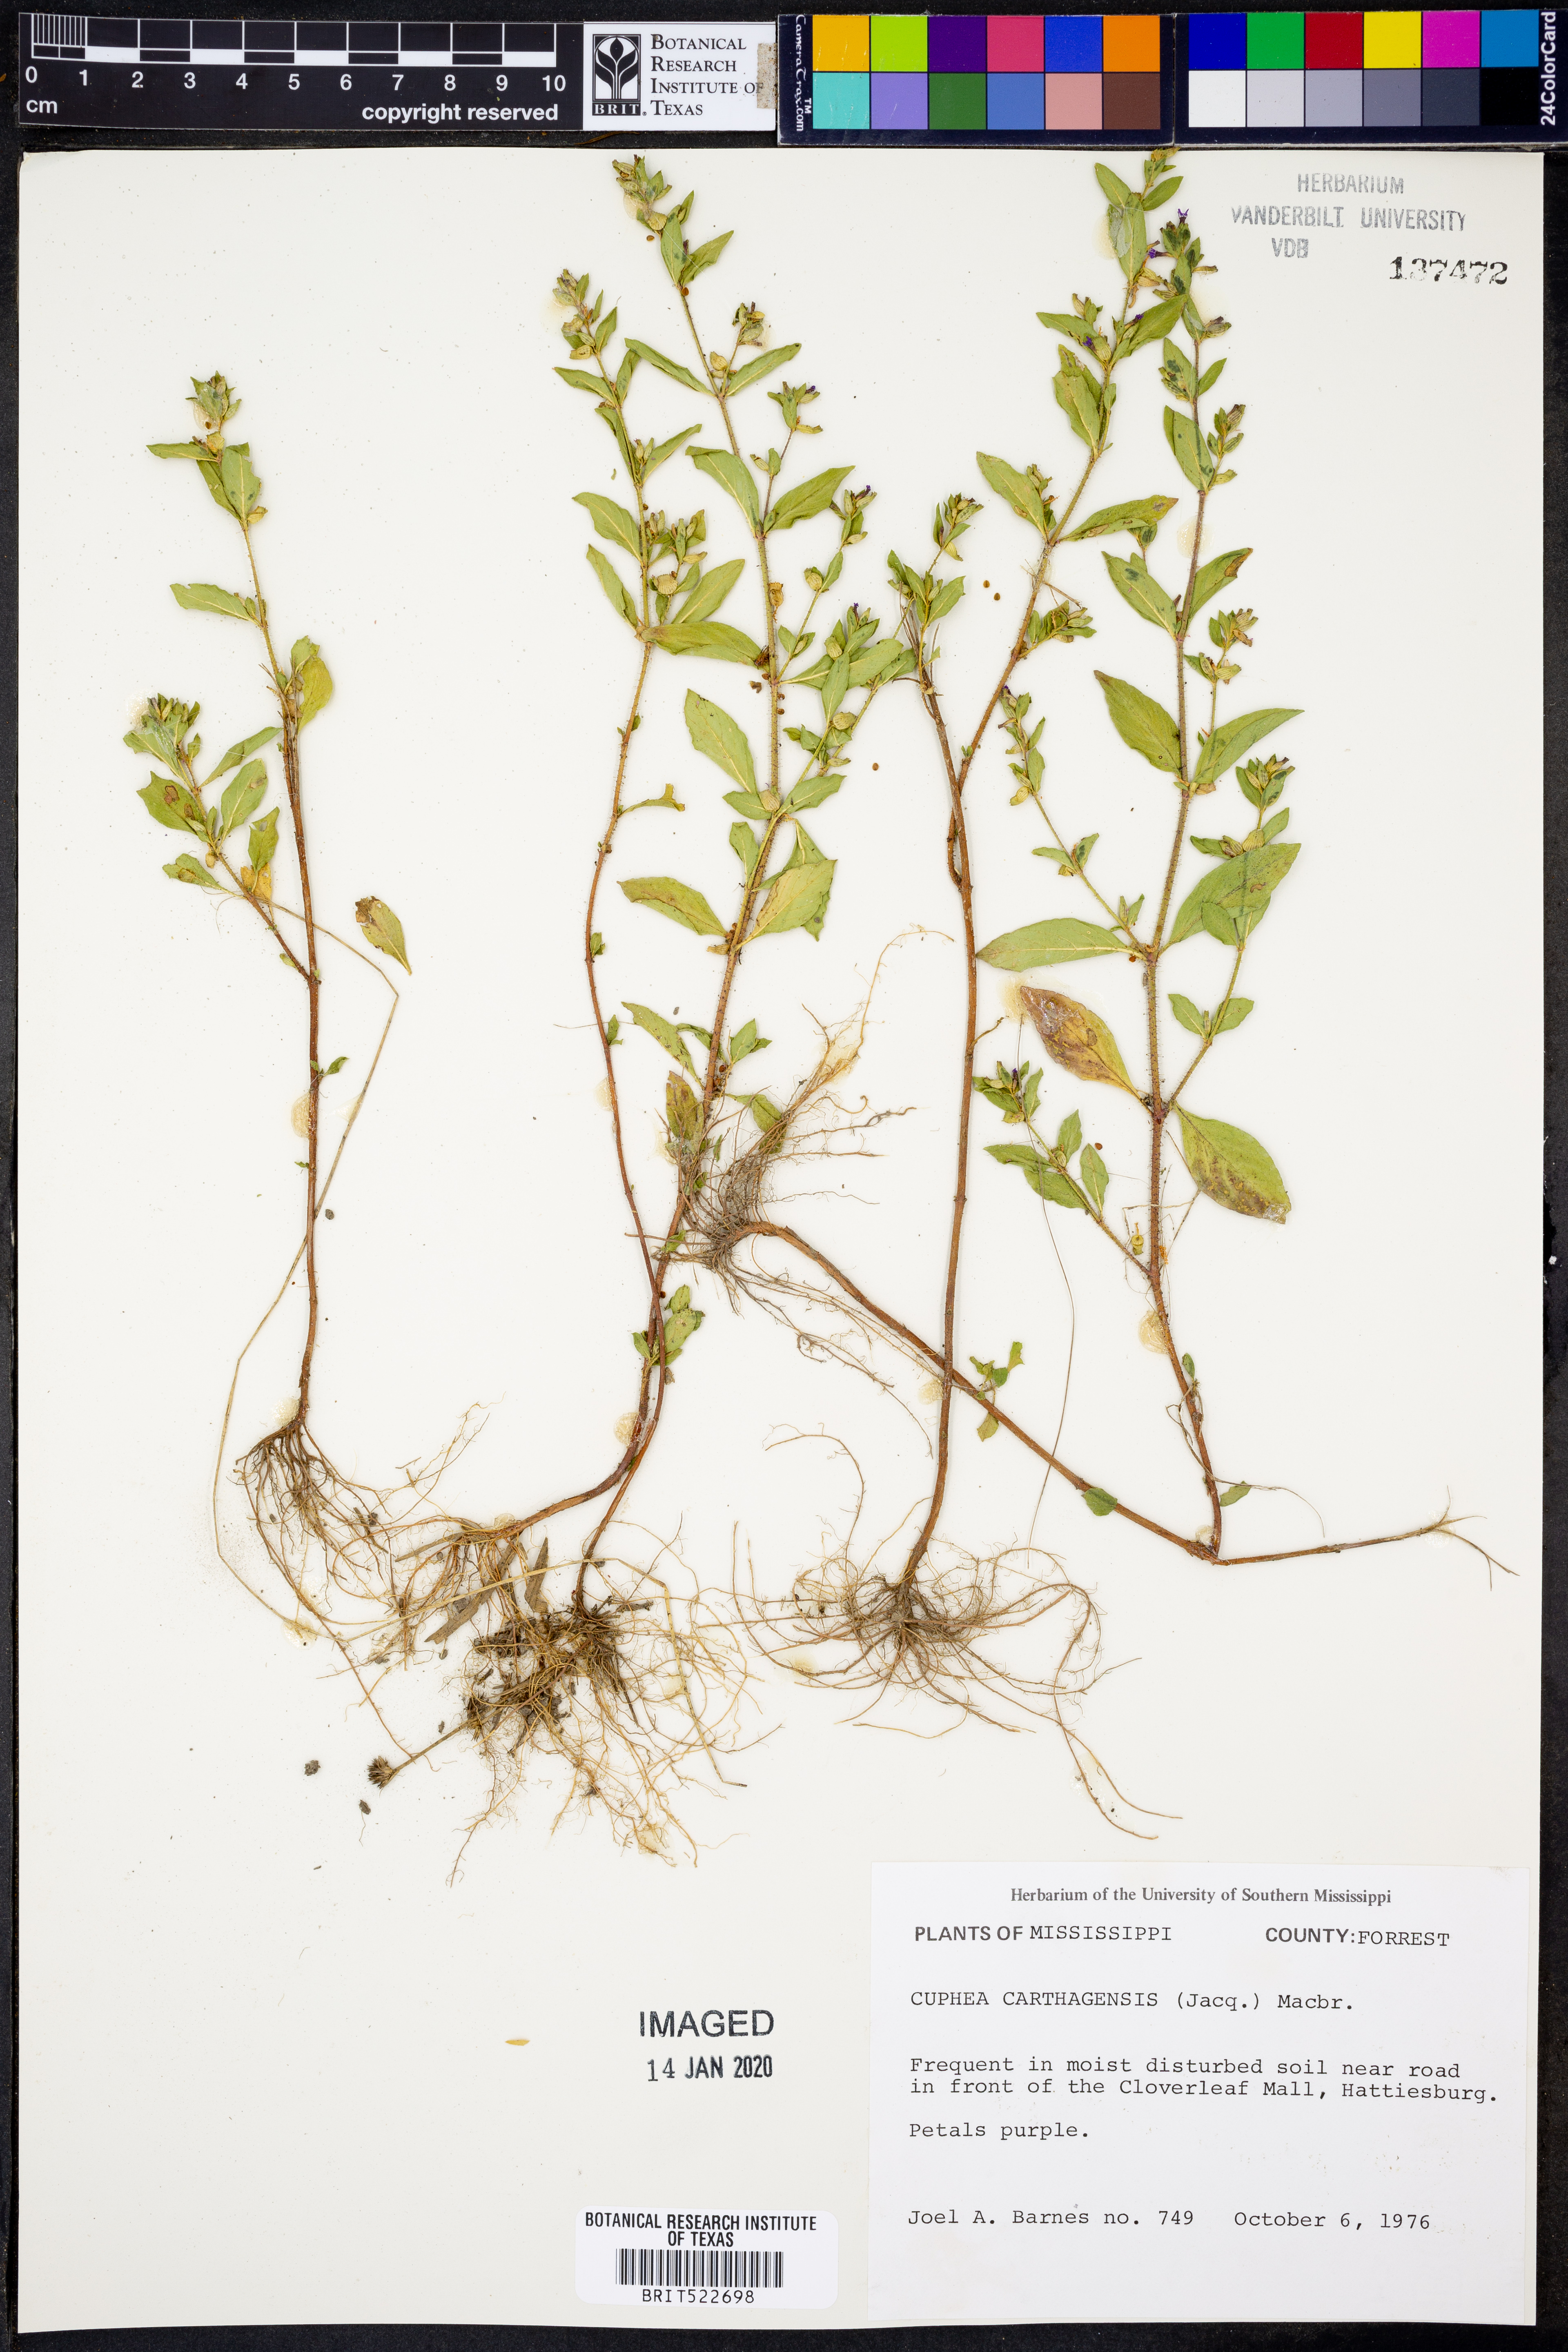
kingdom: Plantae
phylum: Tracheophyta
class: Magnoliopsida
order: Myrtales
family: Lythraceae
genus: Cuphea
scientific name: Cuphea carthagenensis
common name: Colombian waxweed
